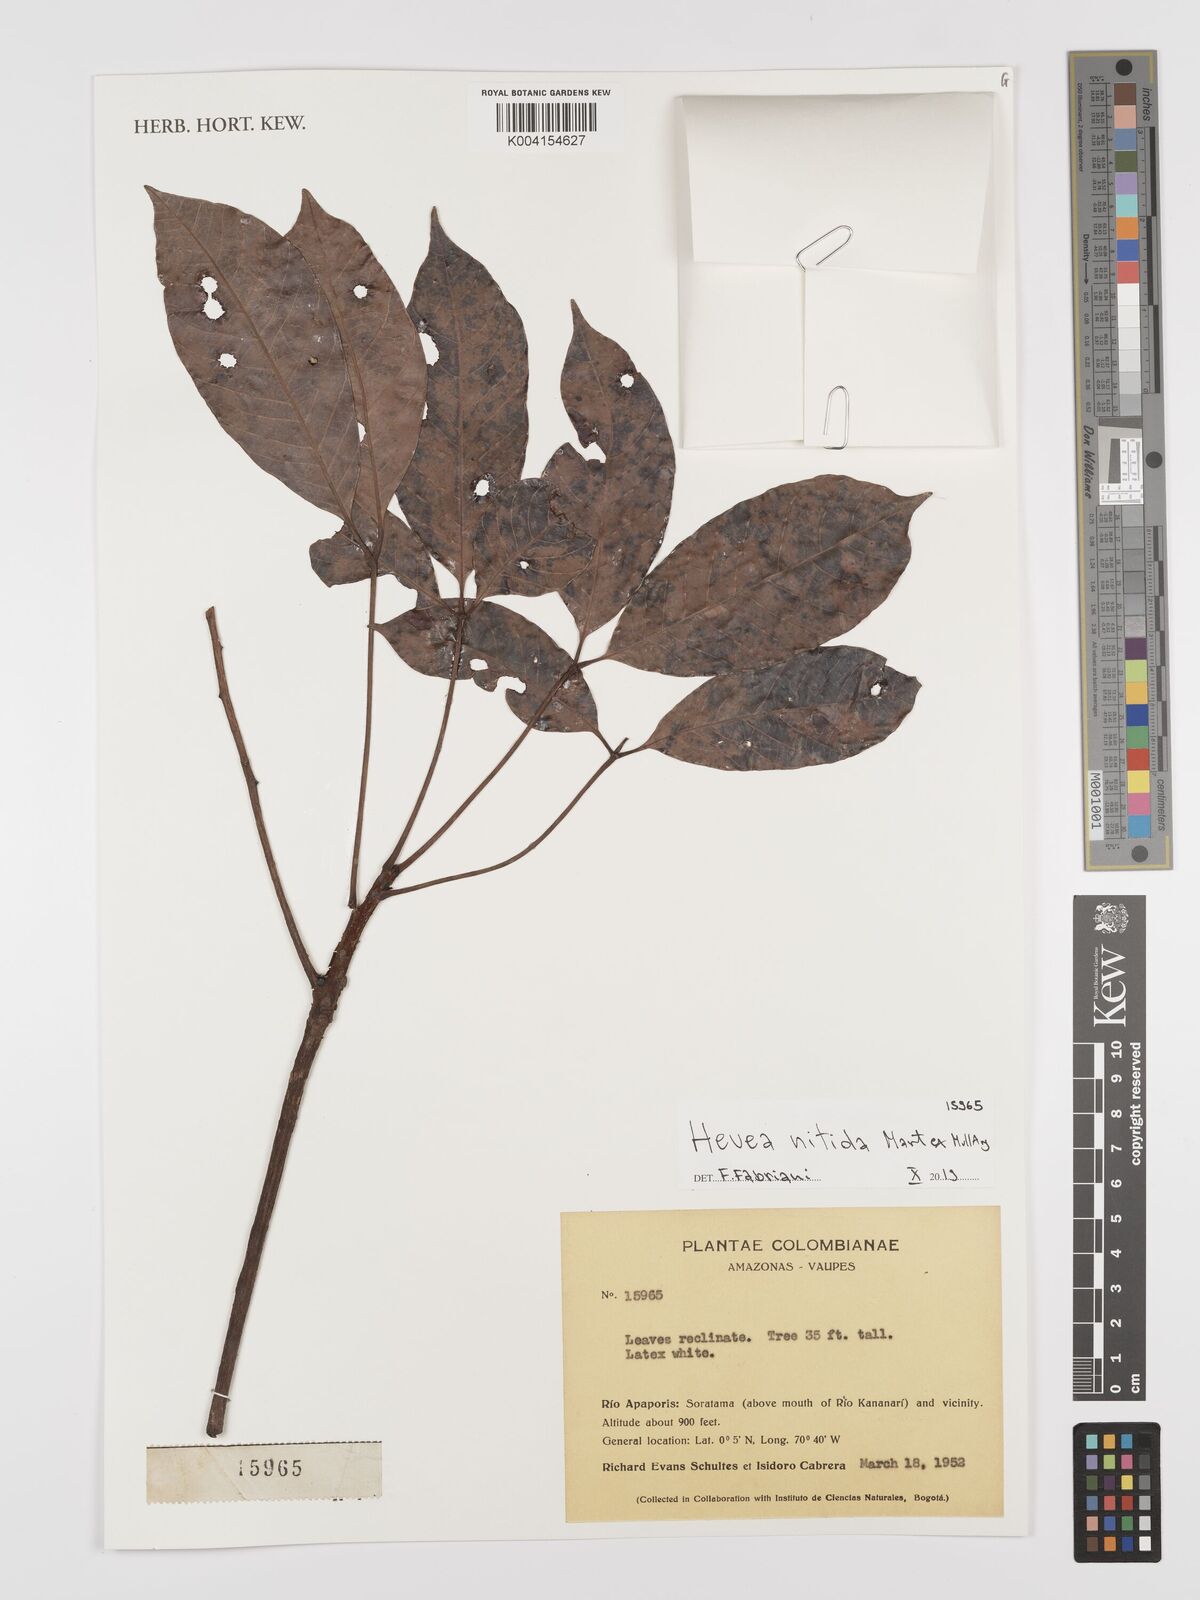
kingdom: Plantae
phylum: Tracheophyta
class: Magnoliopsida
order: Malpighiales
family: Euphorbiaceae
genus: Hevea
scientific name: Hevea nitida
